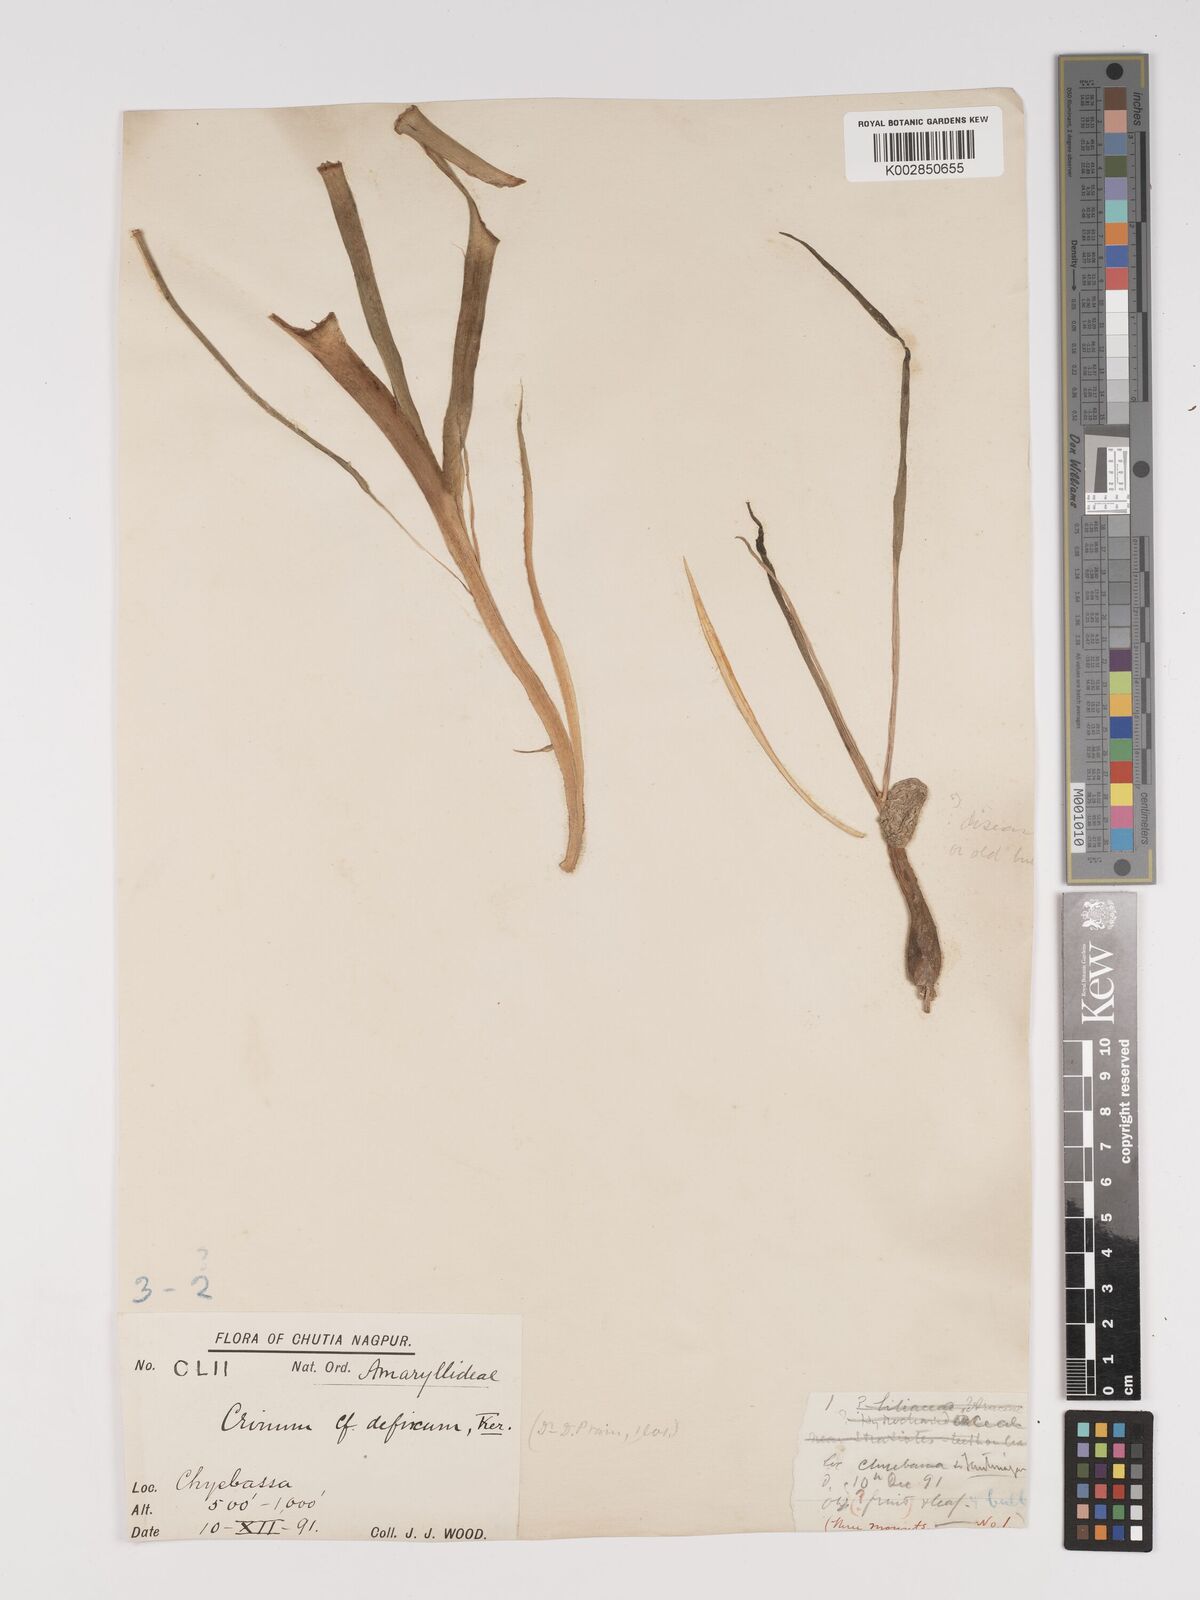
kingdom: Plantae
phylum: Tracheophyta
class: Liliopsida
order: Asparagales
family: Amaryllidaceae
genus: Crinum
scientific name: Crinum
